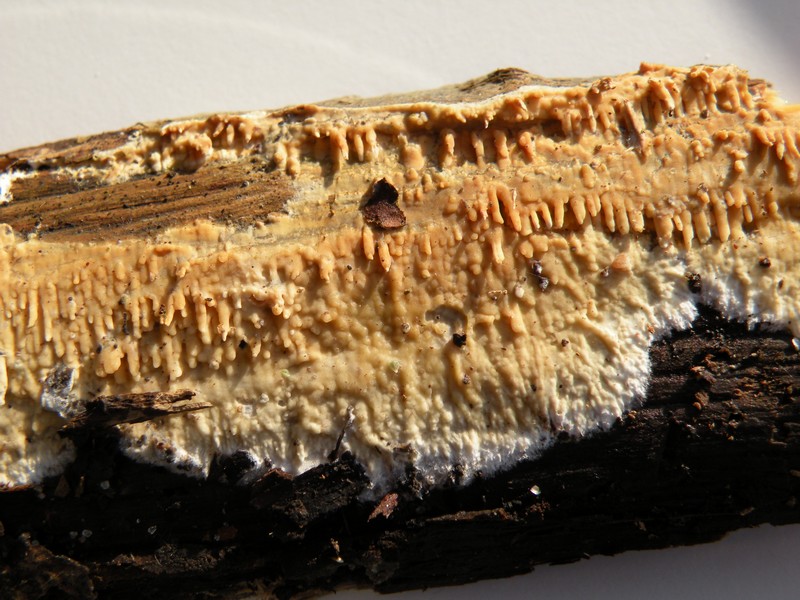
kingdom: Fungi
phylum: Basidiomycota
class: Agaricomycetes
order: Hymenochaetales
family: Schizoporaceae
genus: Xylodon
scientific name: Xylodon radula
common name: grovtandet kalkskind
